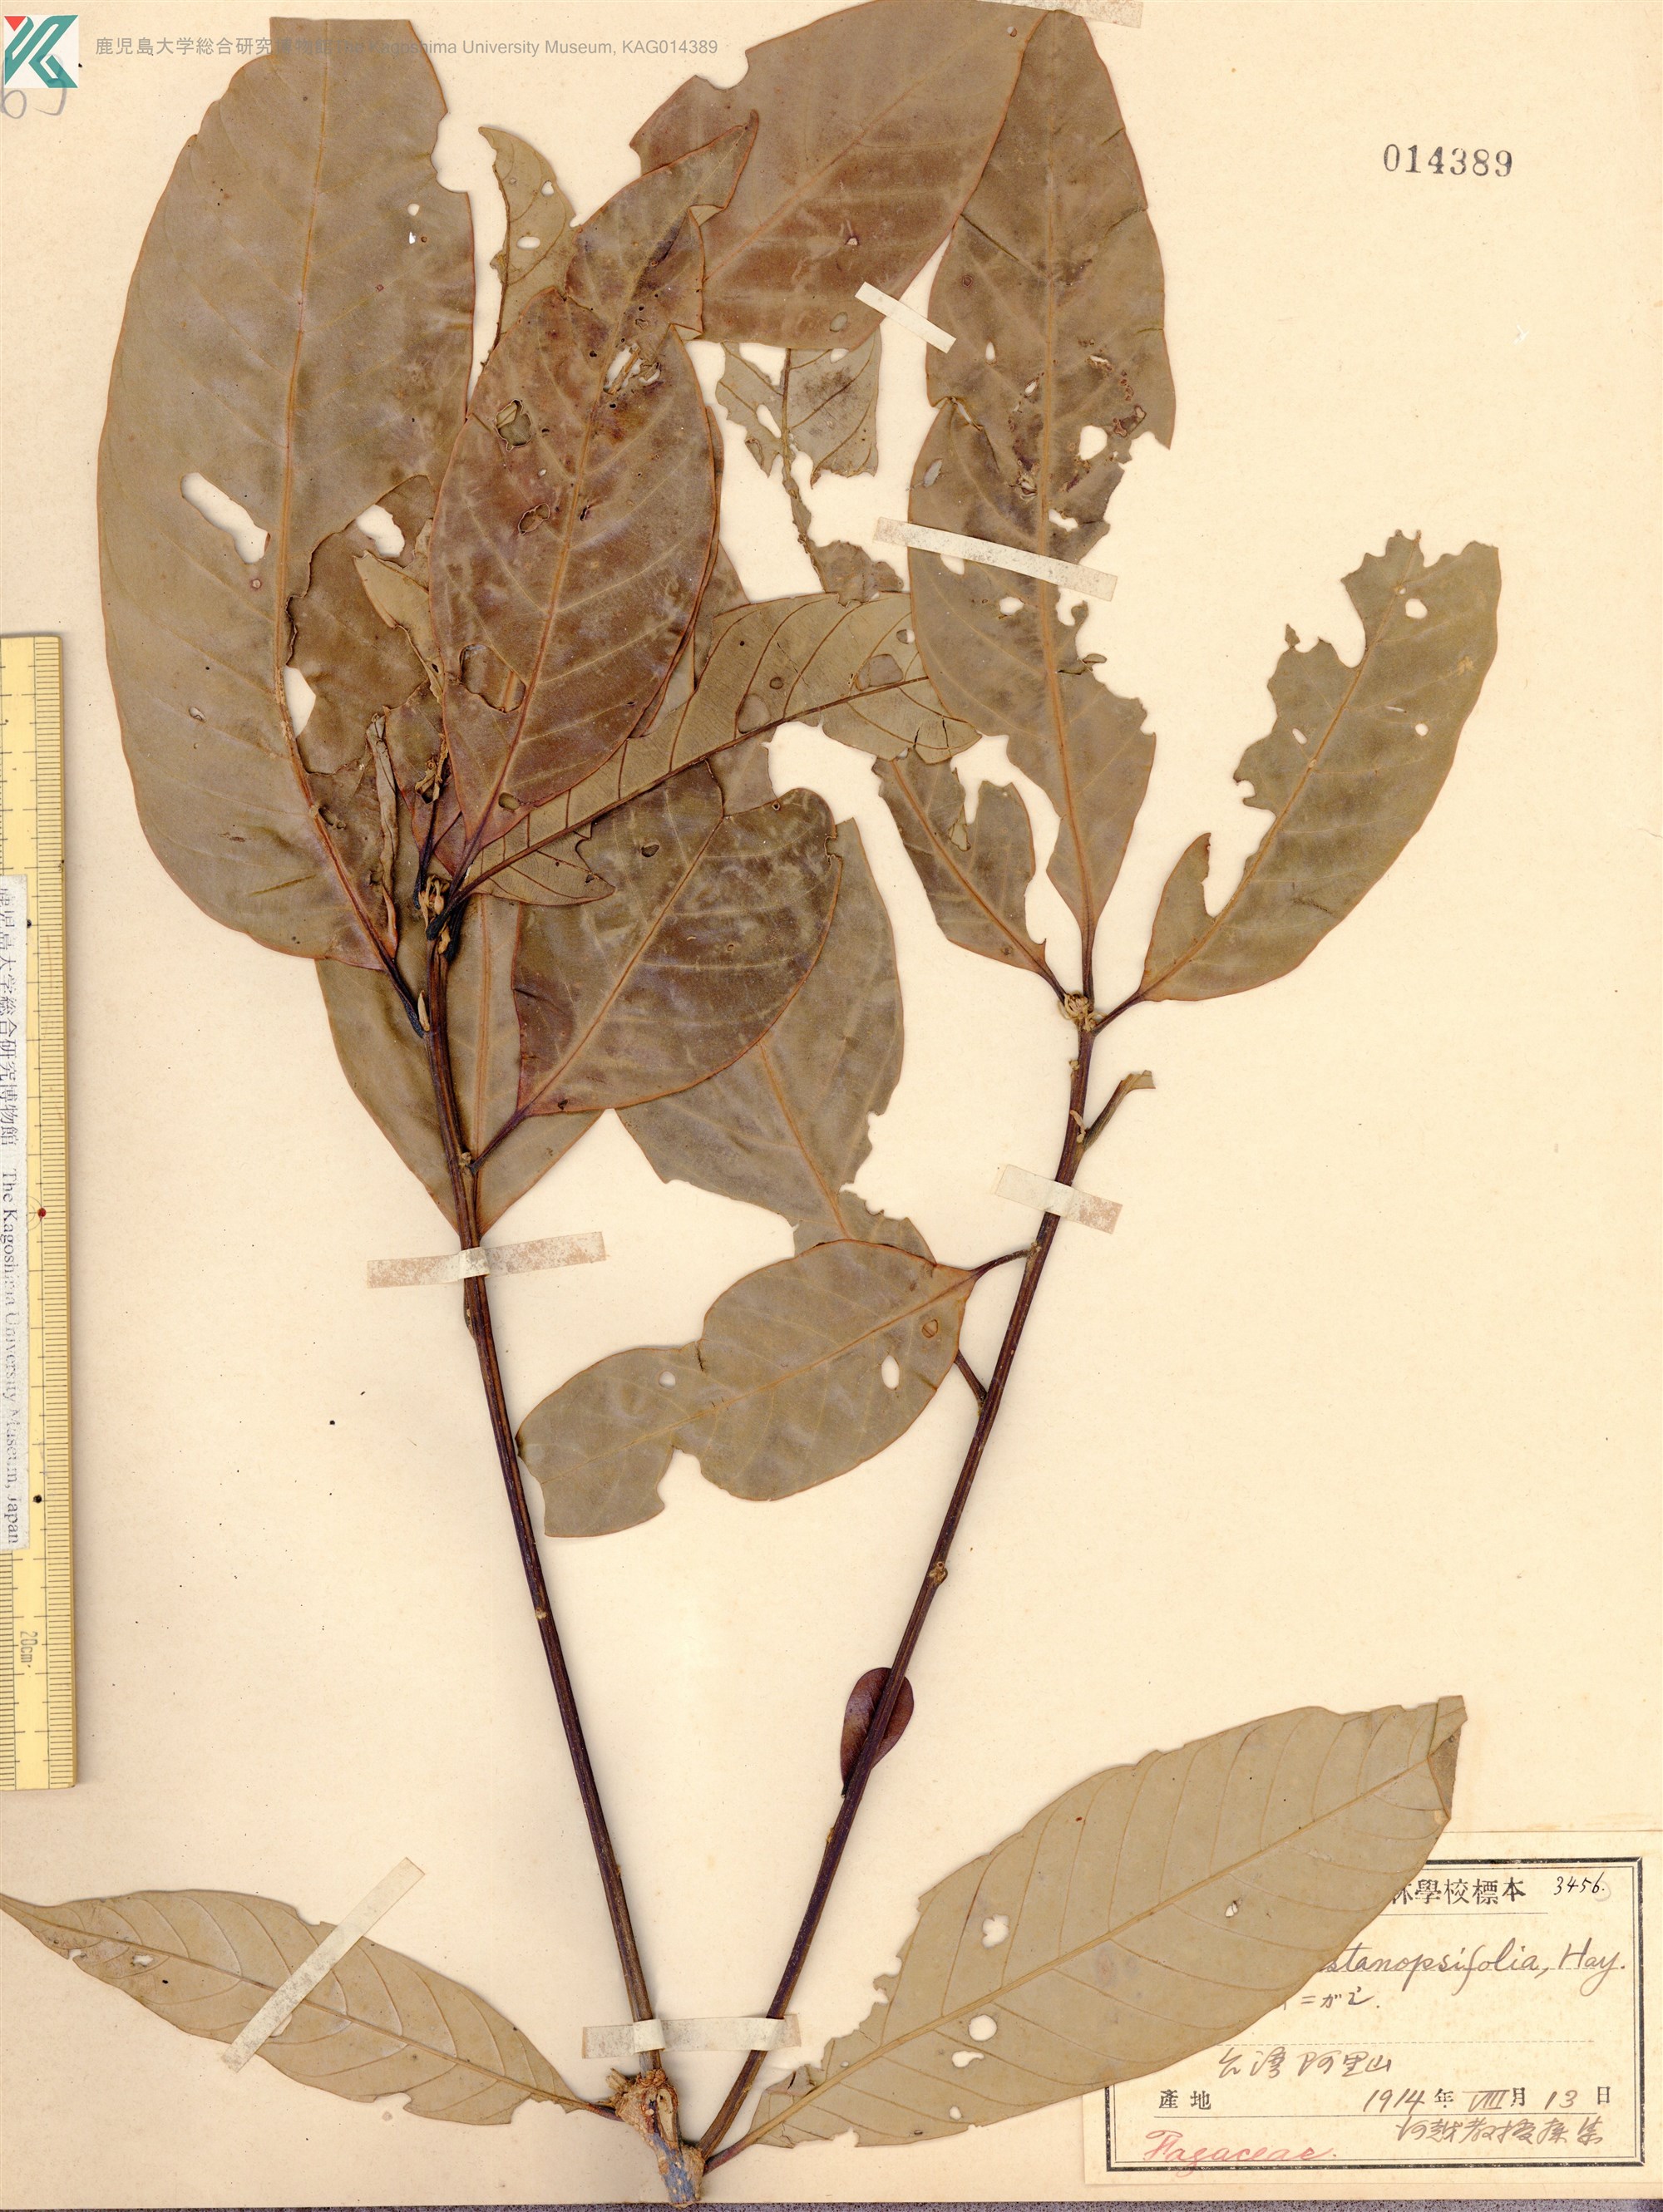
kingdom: Plantae
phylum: Tracheophyta
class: Magnoliopsida
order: Fagales
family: Fagaceae
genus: Lithocarpus
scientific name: Lithocarpus lepidocarpus
